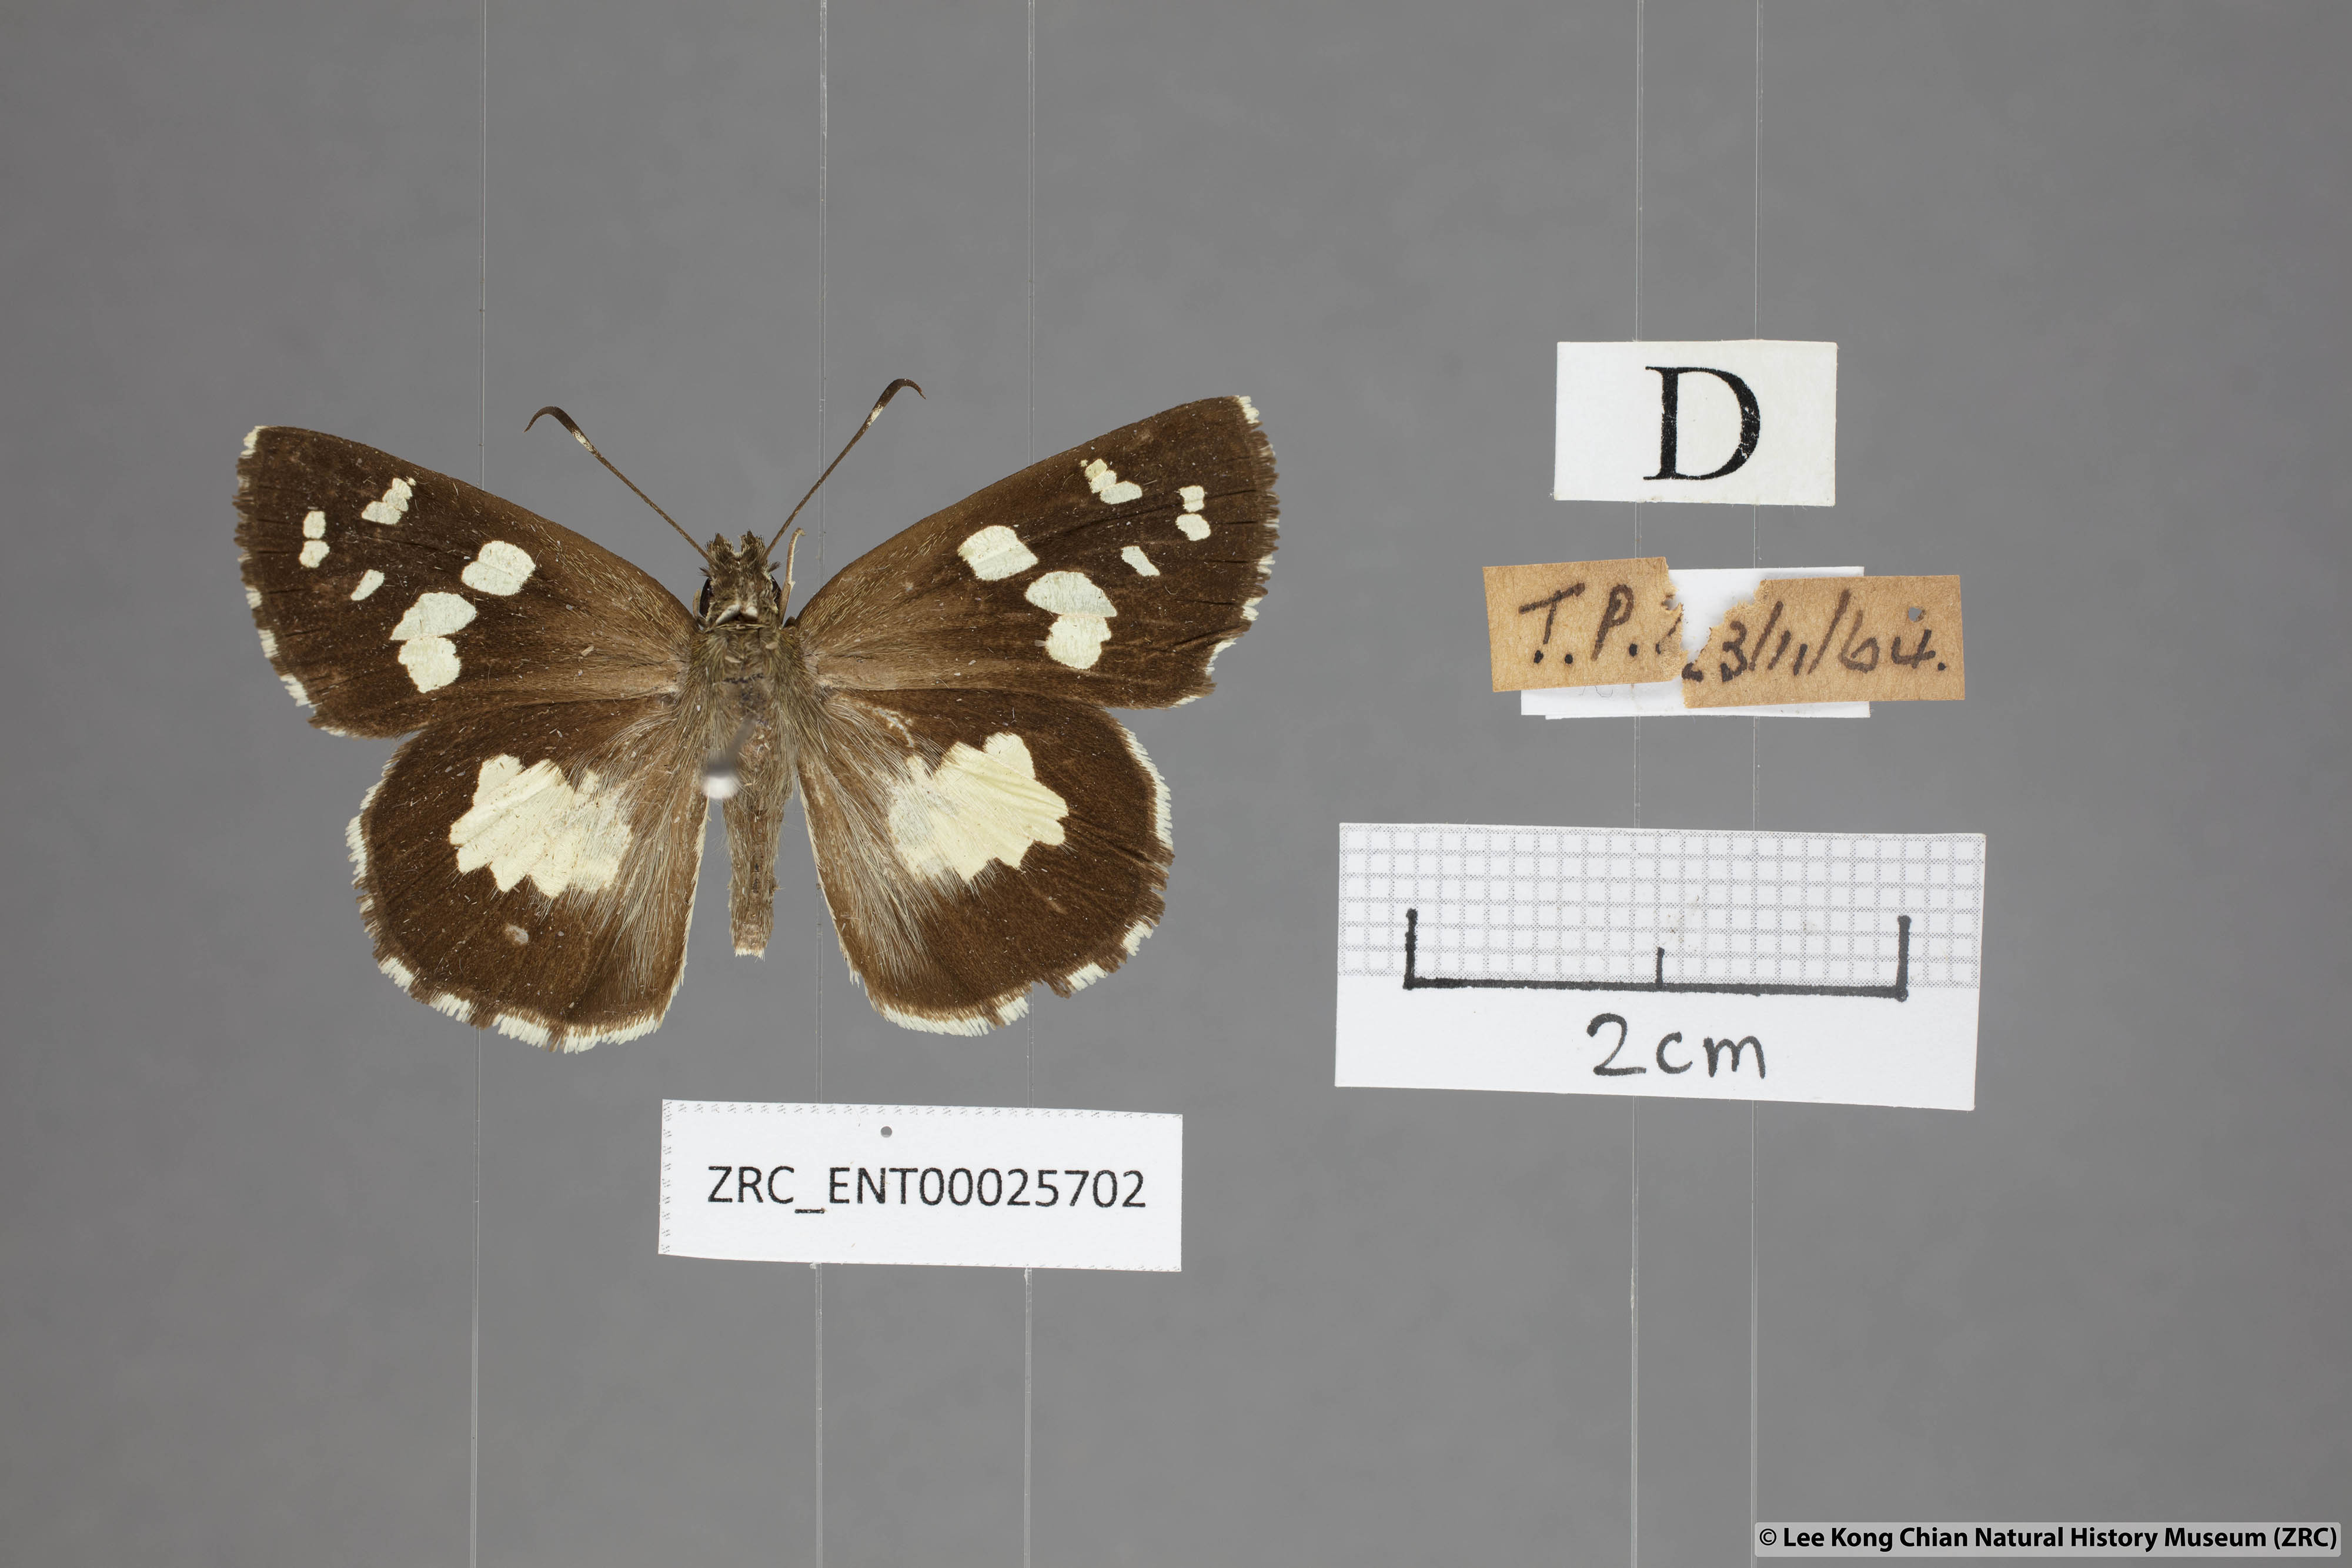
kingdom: Animalia
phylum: Arthropoda
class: Insecta
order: Lepidoptera
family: Hesperiidae
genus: Udaspes
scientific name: Udaspes folus
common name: Grass demon
